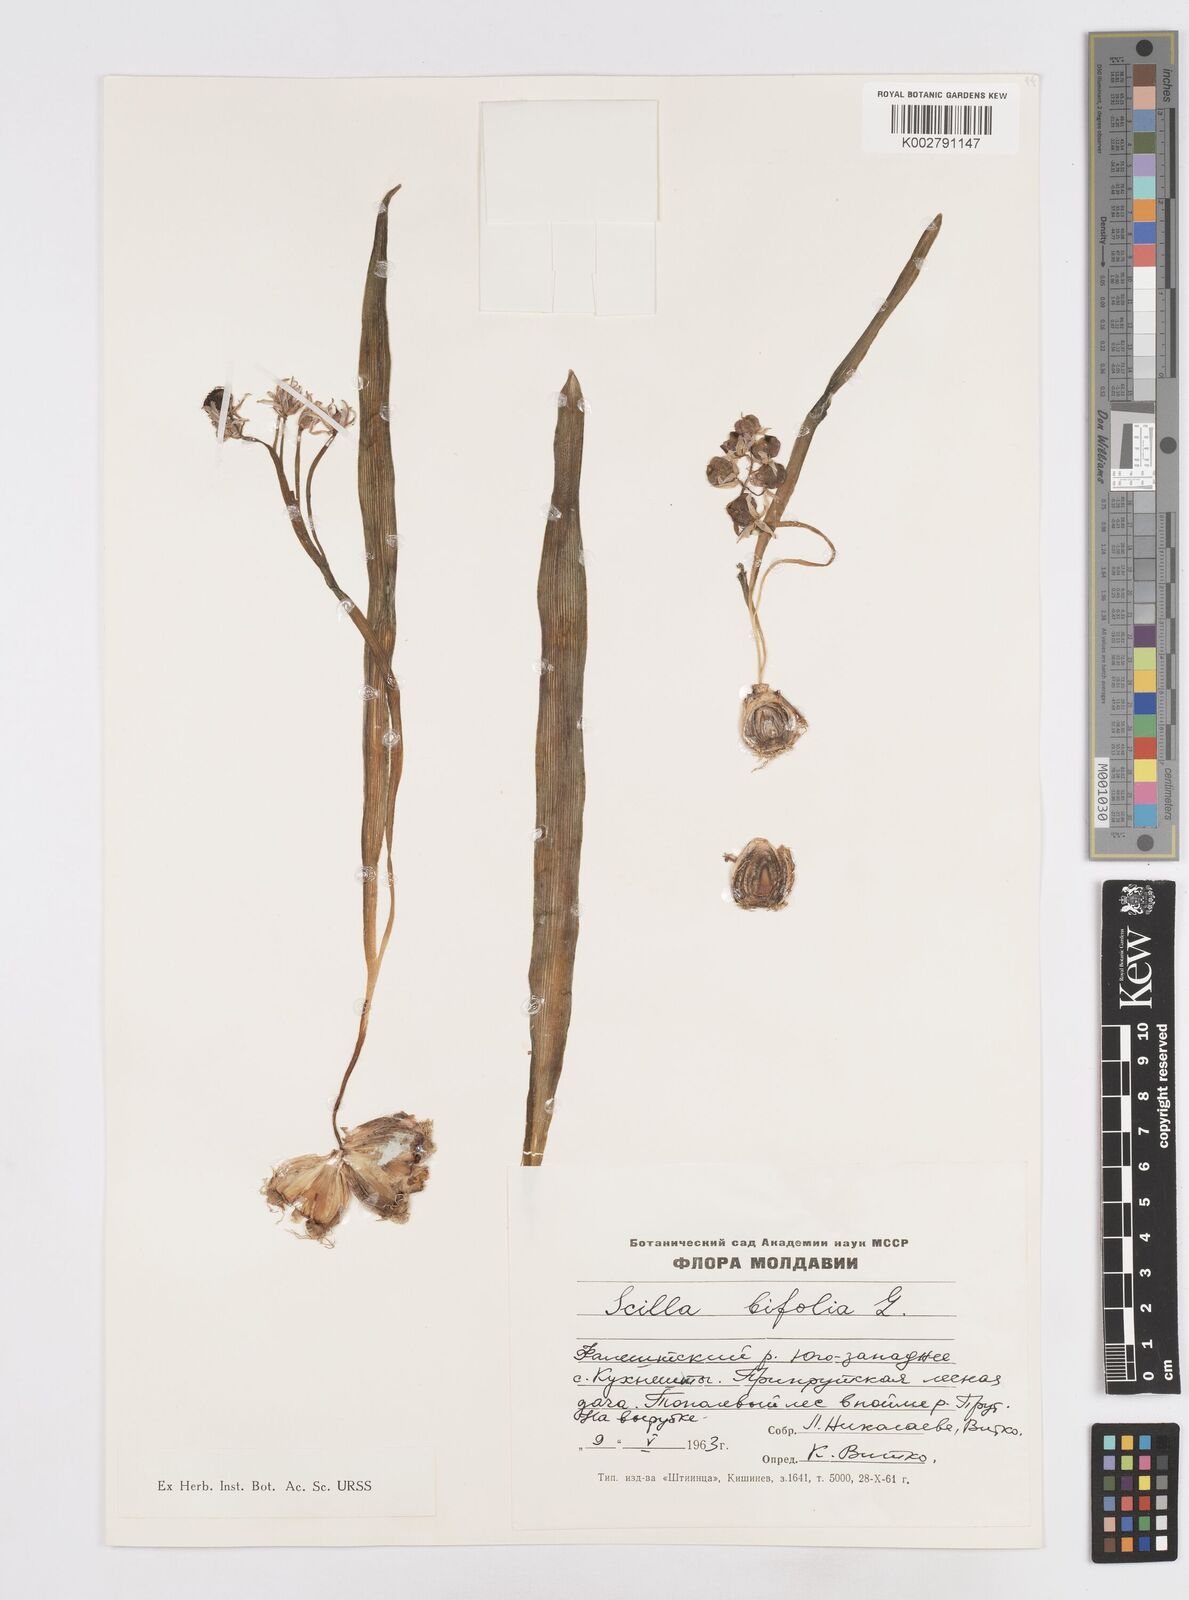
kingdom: Plantae
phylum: Tracheophyta
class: Liliopsida
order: Asparagales
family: Asparagaceae
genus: Scilla
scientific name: Scilla bifolia
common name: Alpine squill
